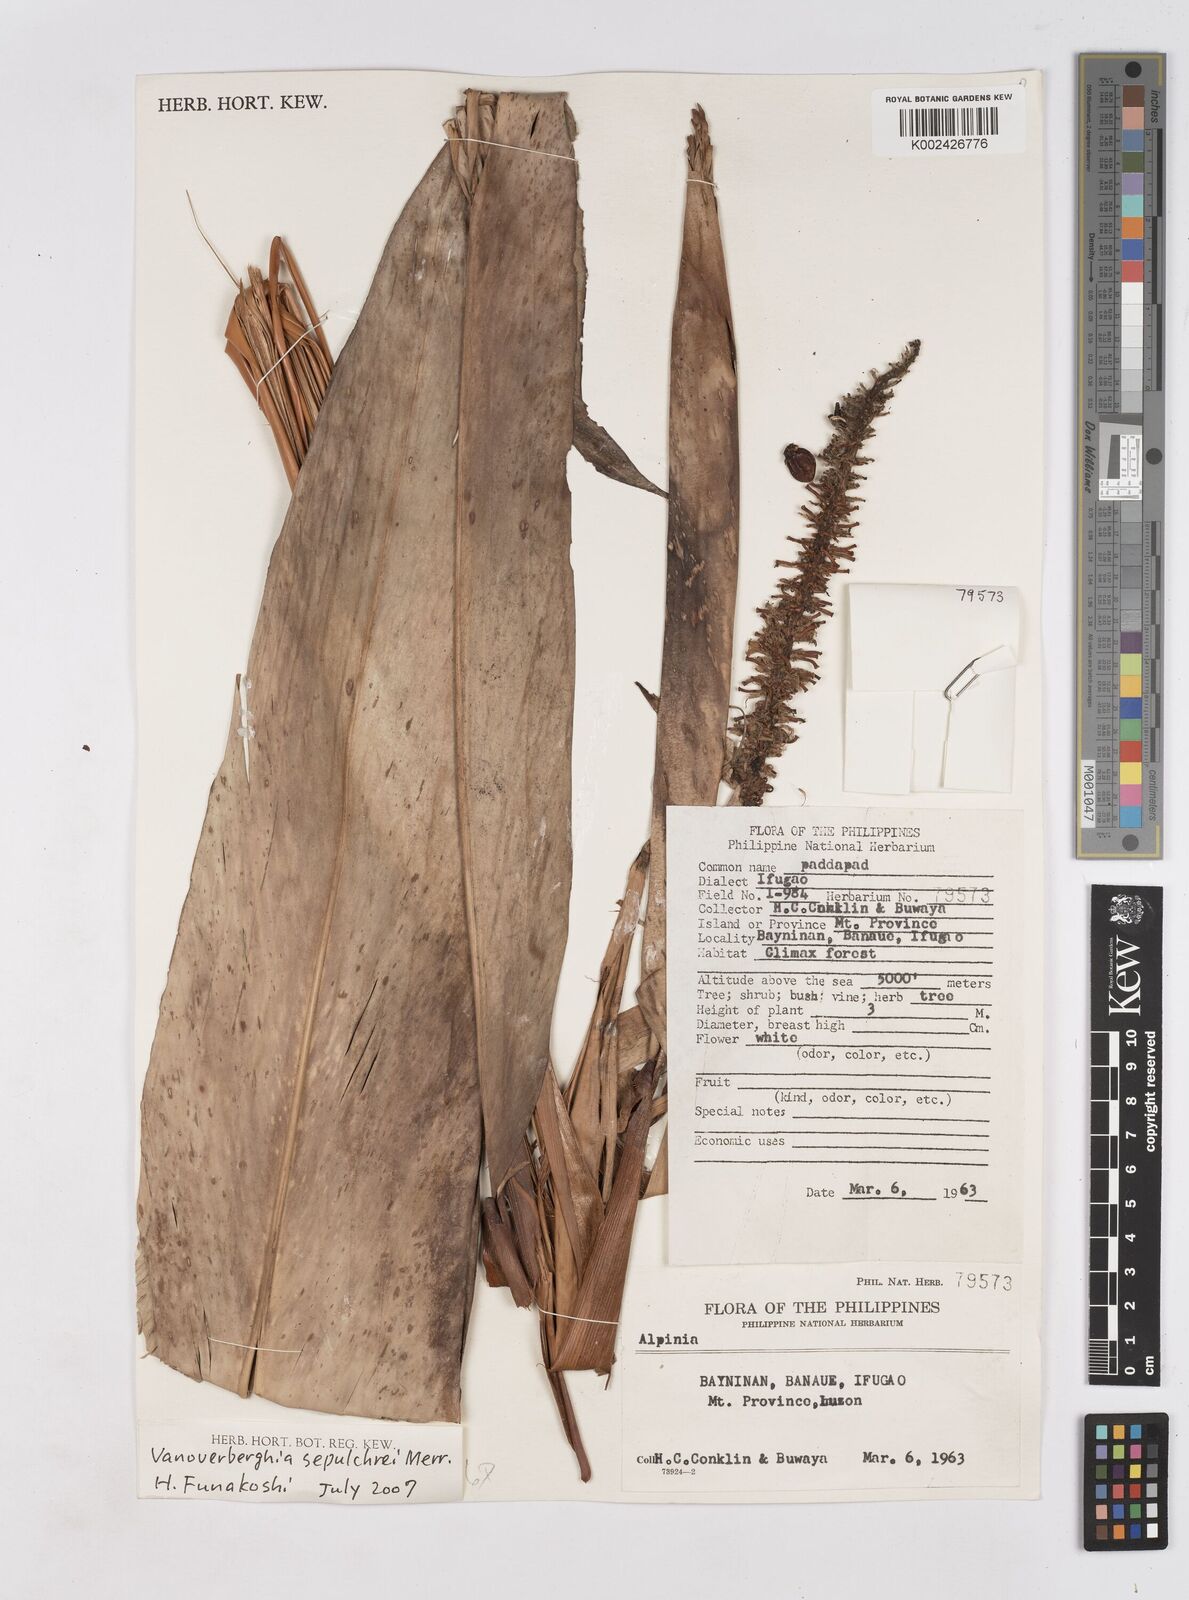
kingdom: Plantae
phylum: Tracheophyta
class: Liliopsida
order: Zingiberales
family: Zingiberaceae
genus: Vanoverberghia
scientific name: Vanoverberghia sepulchrei
